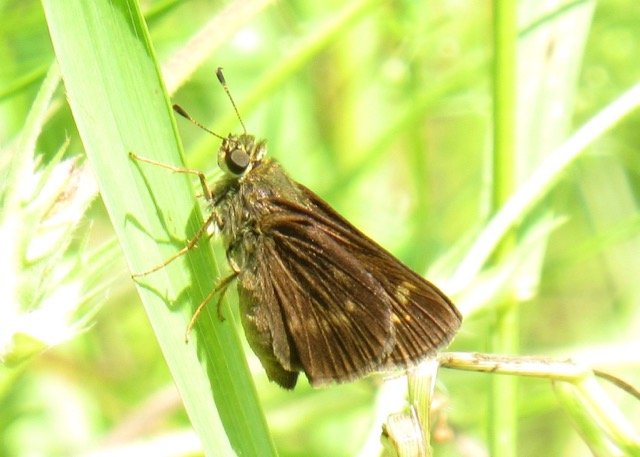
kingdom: Animalia
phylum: Arthropoda
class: Insecta
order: Lepidoptera
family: Hesperiidae
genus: Vernia
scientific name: Vernia verna
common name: Little Glassywing
